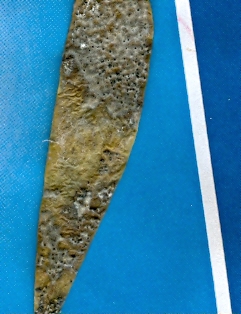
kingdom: Fungi
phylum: Ascomycota
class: Dothideomycetes
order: Botryosphaeriales
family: Botryosphaeriaceae
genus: Botryosphaeria
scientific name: Botryosphaeria visci
